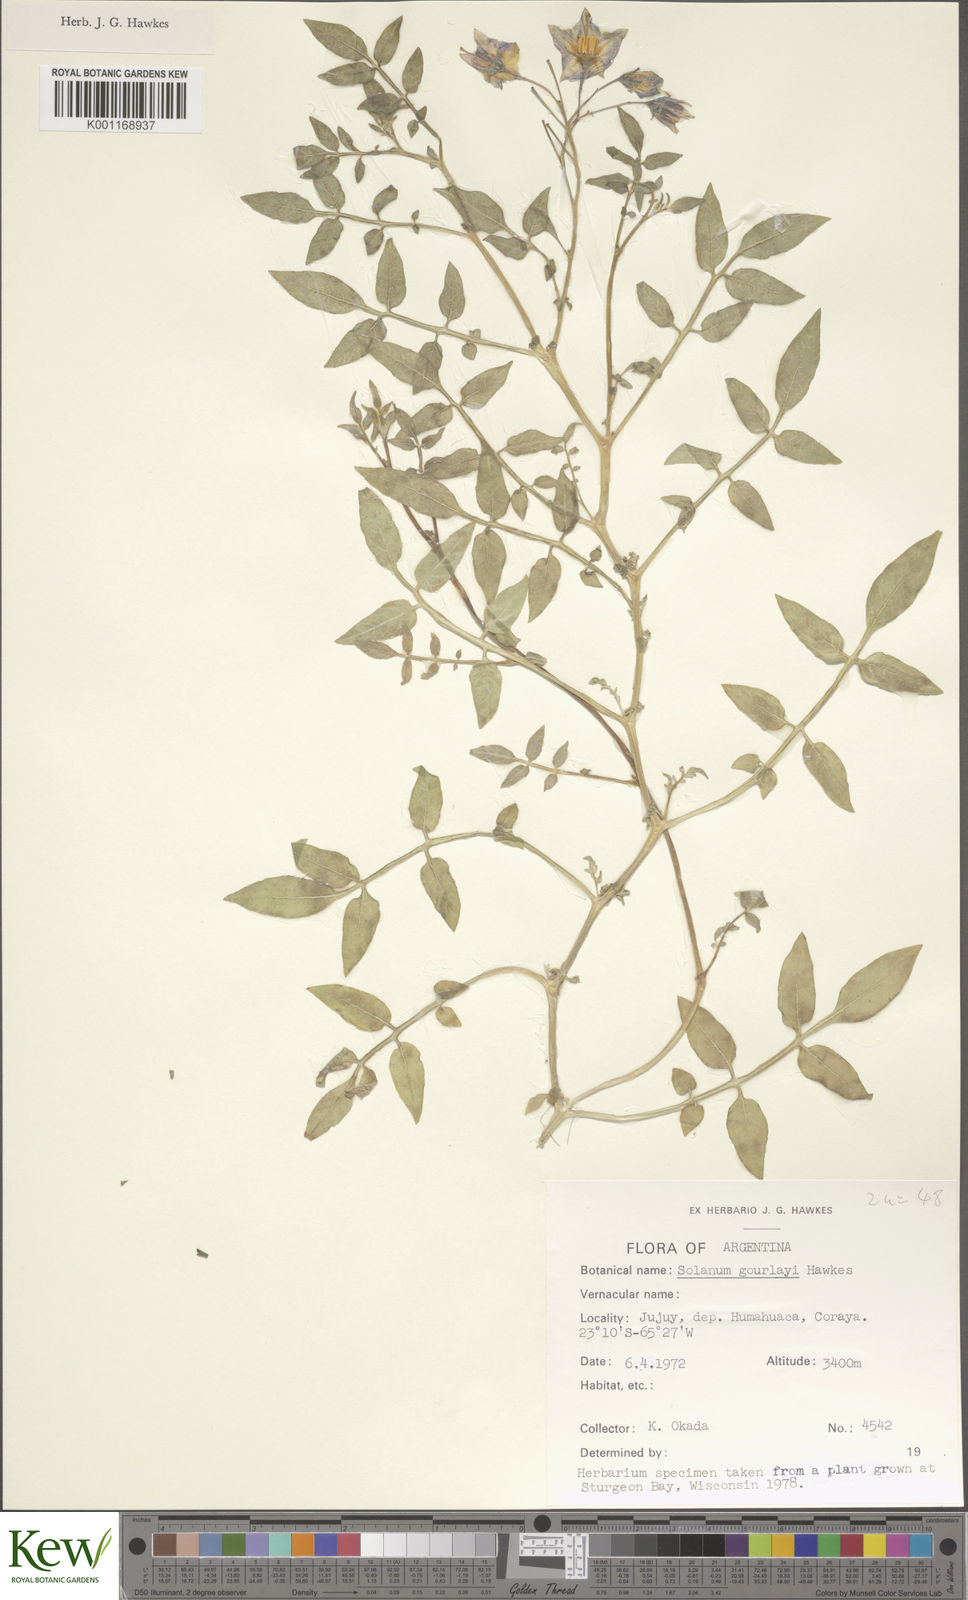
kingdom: Plantae
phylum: Tracheophyta
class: Magnoliopsida
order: Solanales
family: Solanaceae
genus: Solanum
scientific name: Solanum brevicaule
